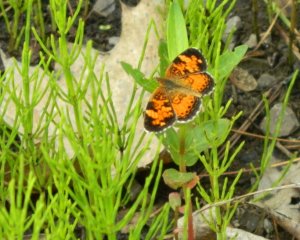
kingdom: Animalia
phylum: Arthropoda
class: Insecta
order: Lepidoptera
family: Nymphalidae
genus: Phyciodes
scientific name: Phyciodes tharos
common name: Northern Crescent
